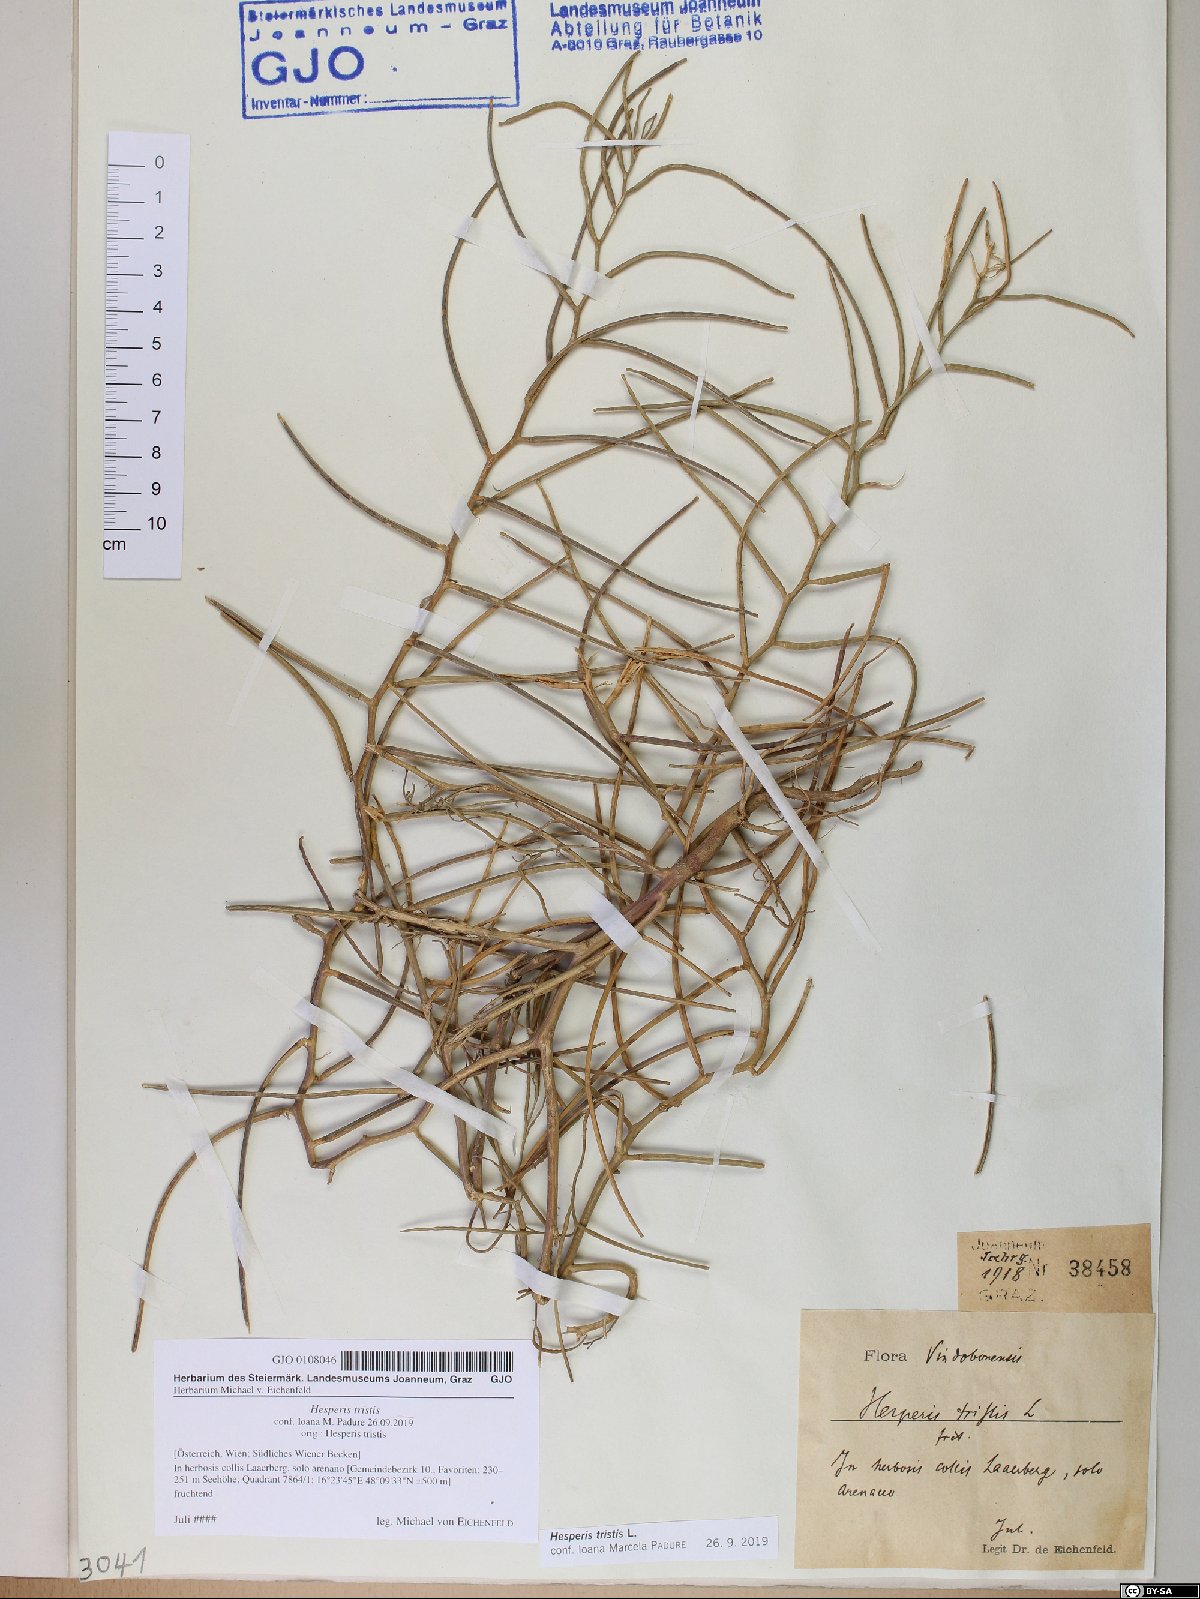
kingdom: Plantae
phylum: Tracheophyta
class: Magnoliopsida
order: Brassicales
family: Brassicaceae
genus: Hesperis
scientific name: Hesperis tristis
